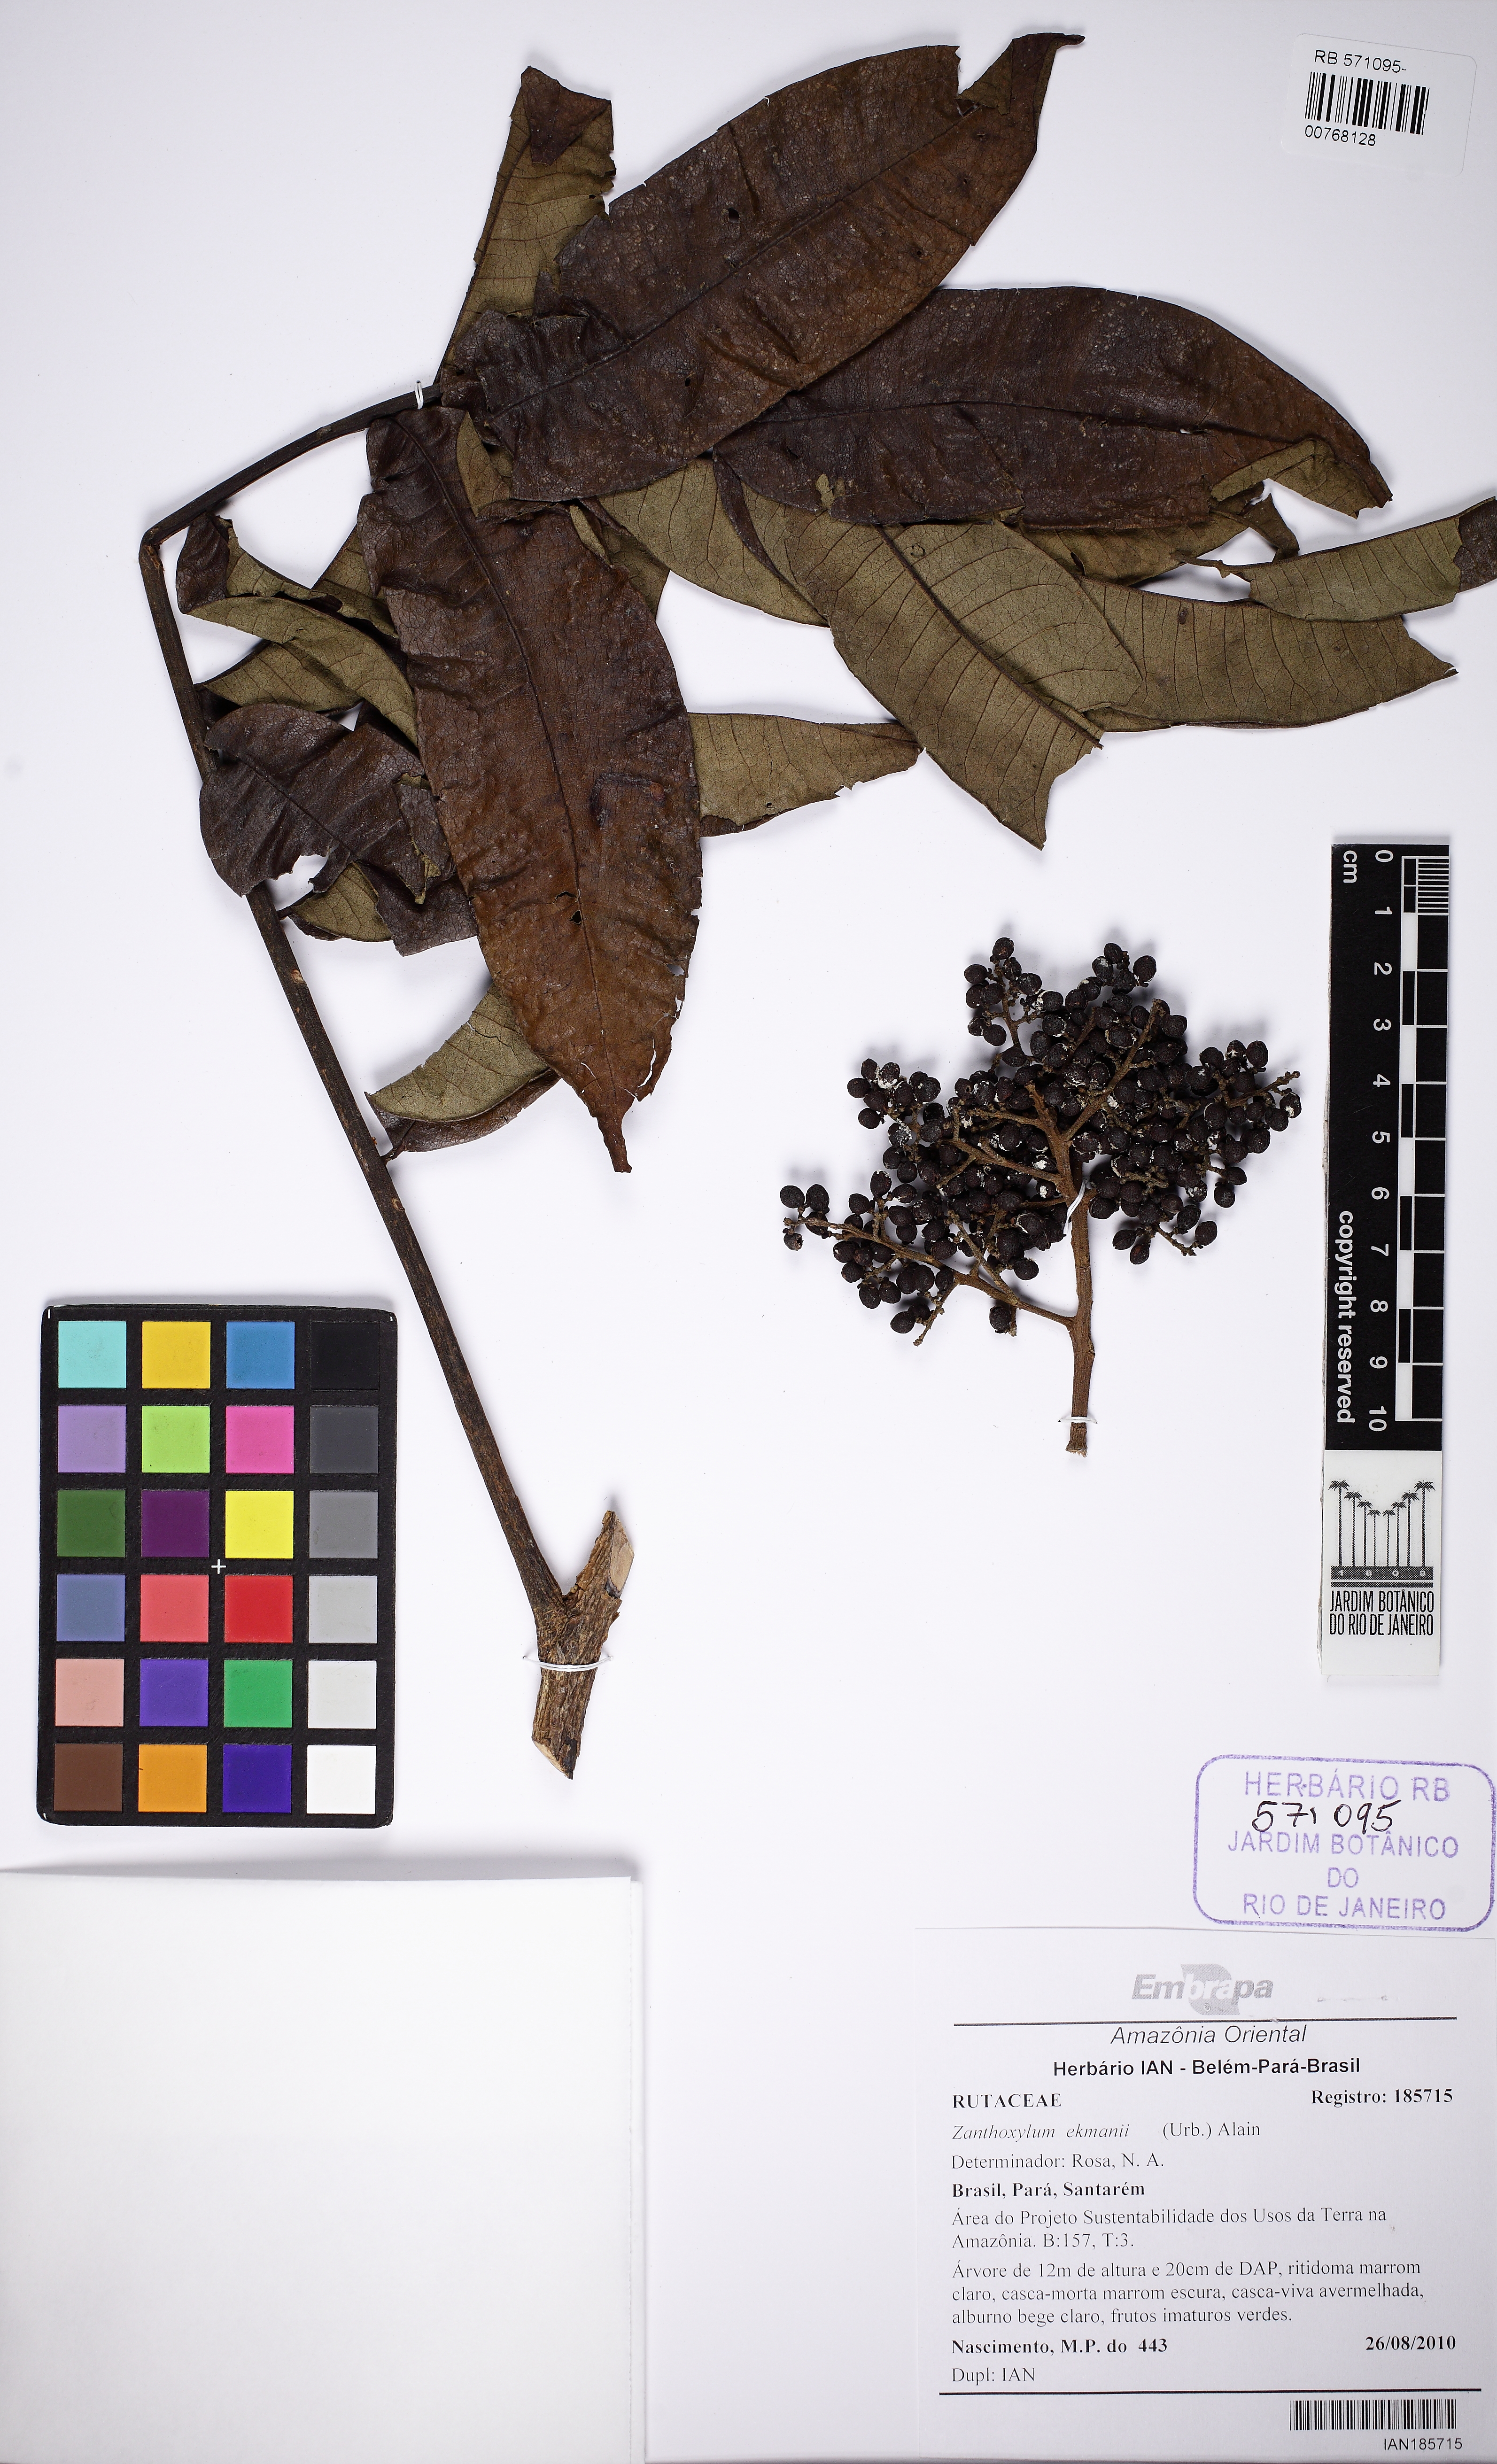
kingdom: Plantae
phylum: Tracheophyta
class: Magnoliopsida
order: Sapindales
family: Rutaceae
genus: Zanthoxylum
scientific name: Zanthoxylum ekmanii
